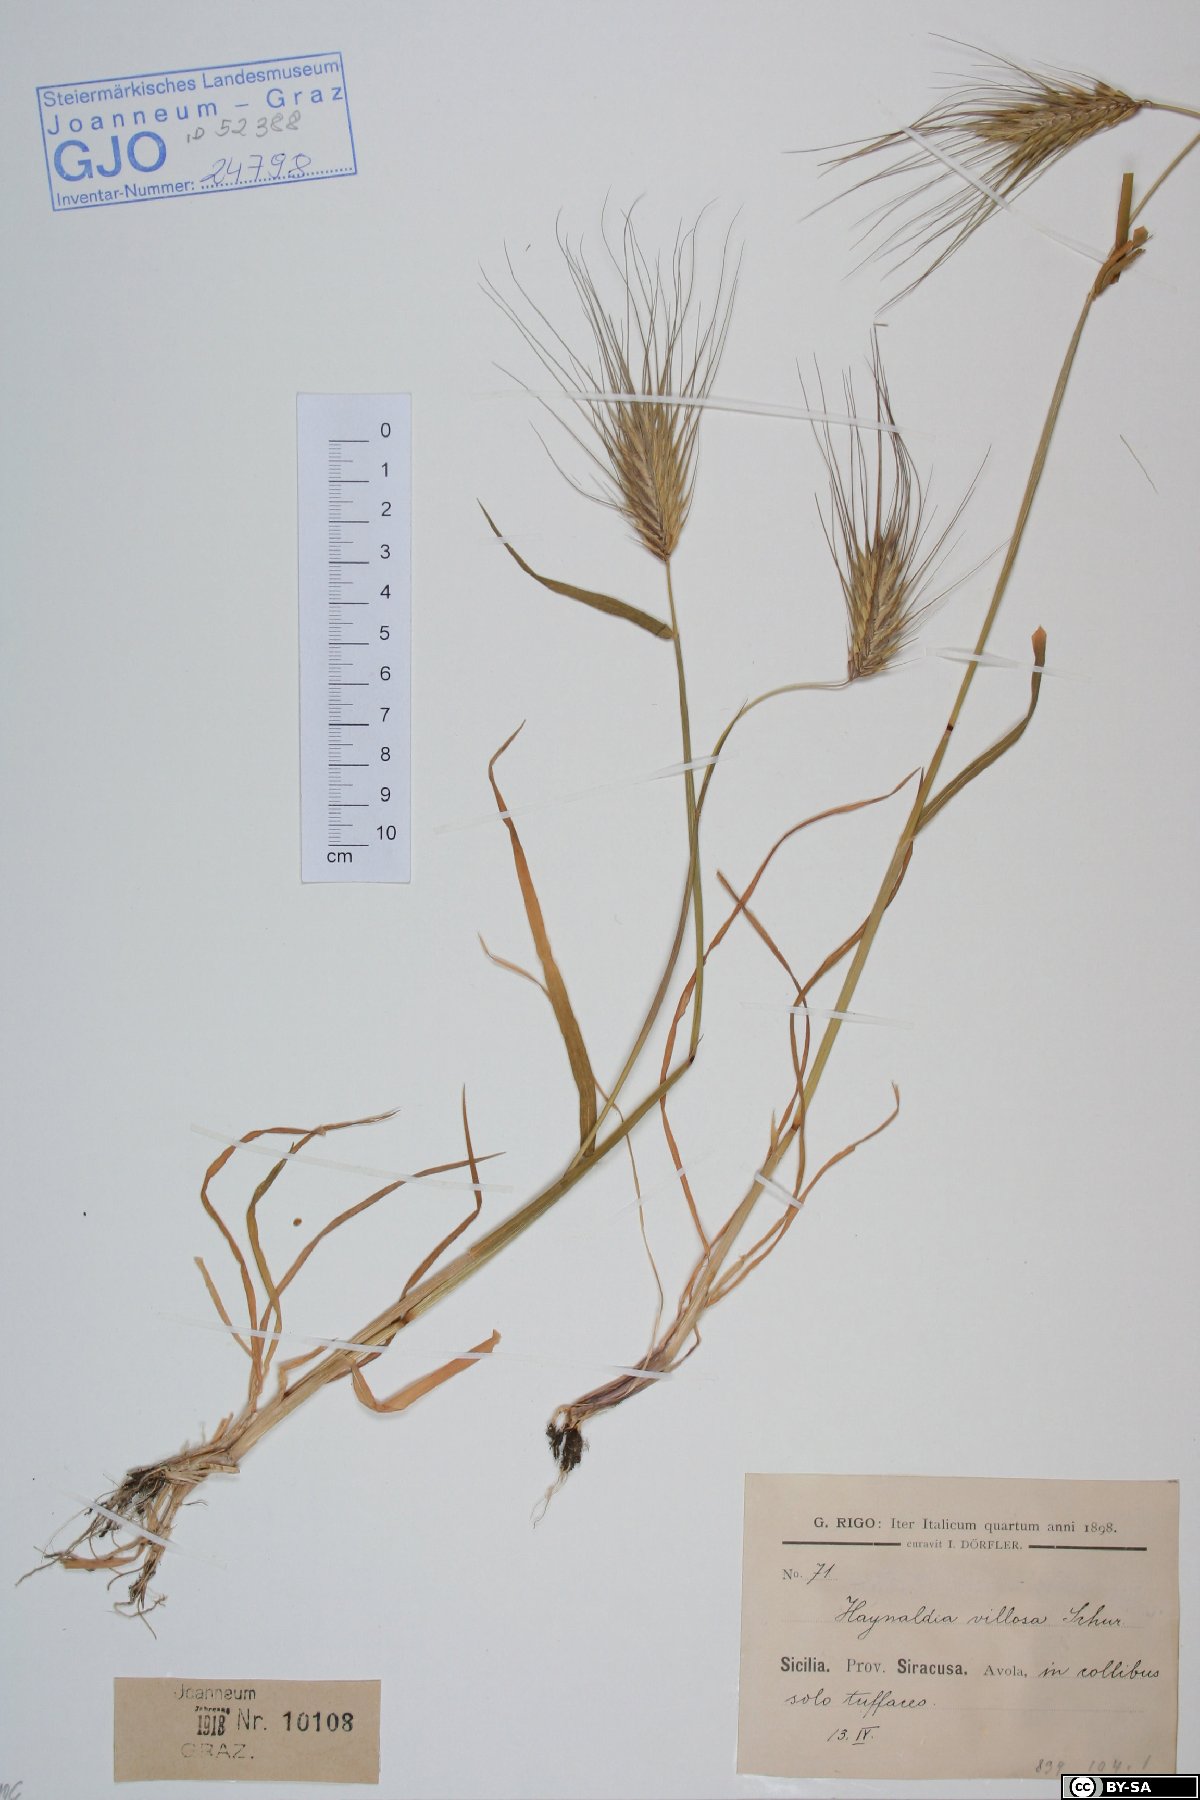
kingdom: Plantae
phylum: Tracheophyta
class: Liliopsida
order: Poales
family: Poaceae
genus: Dasypyrum
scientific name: Dasypyrum villosum
